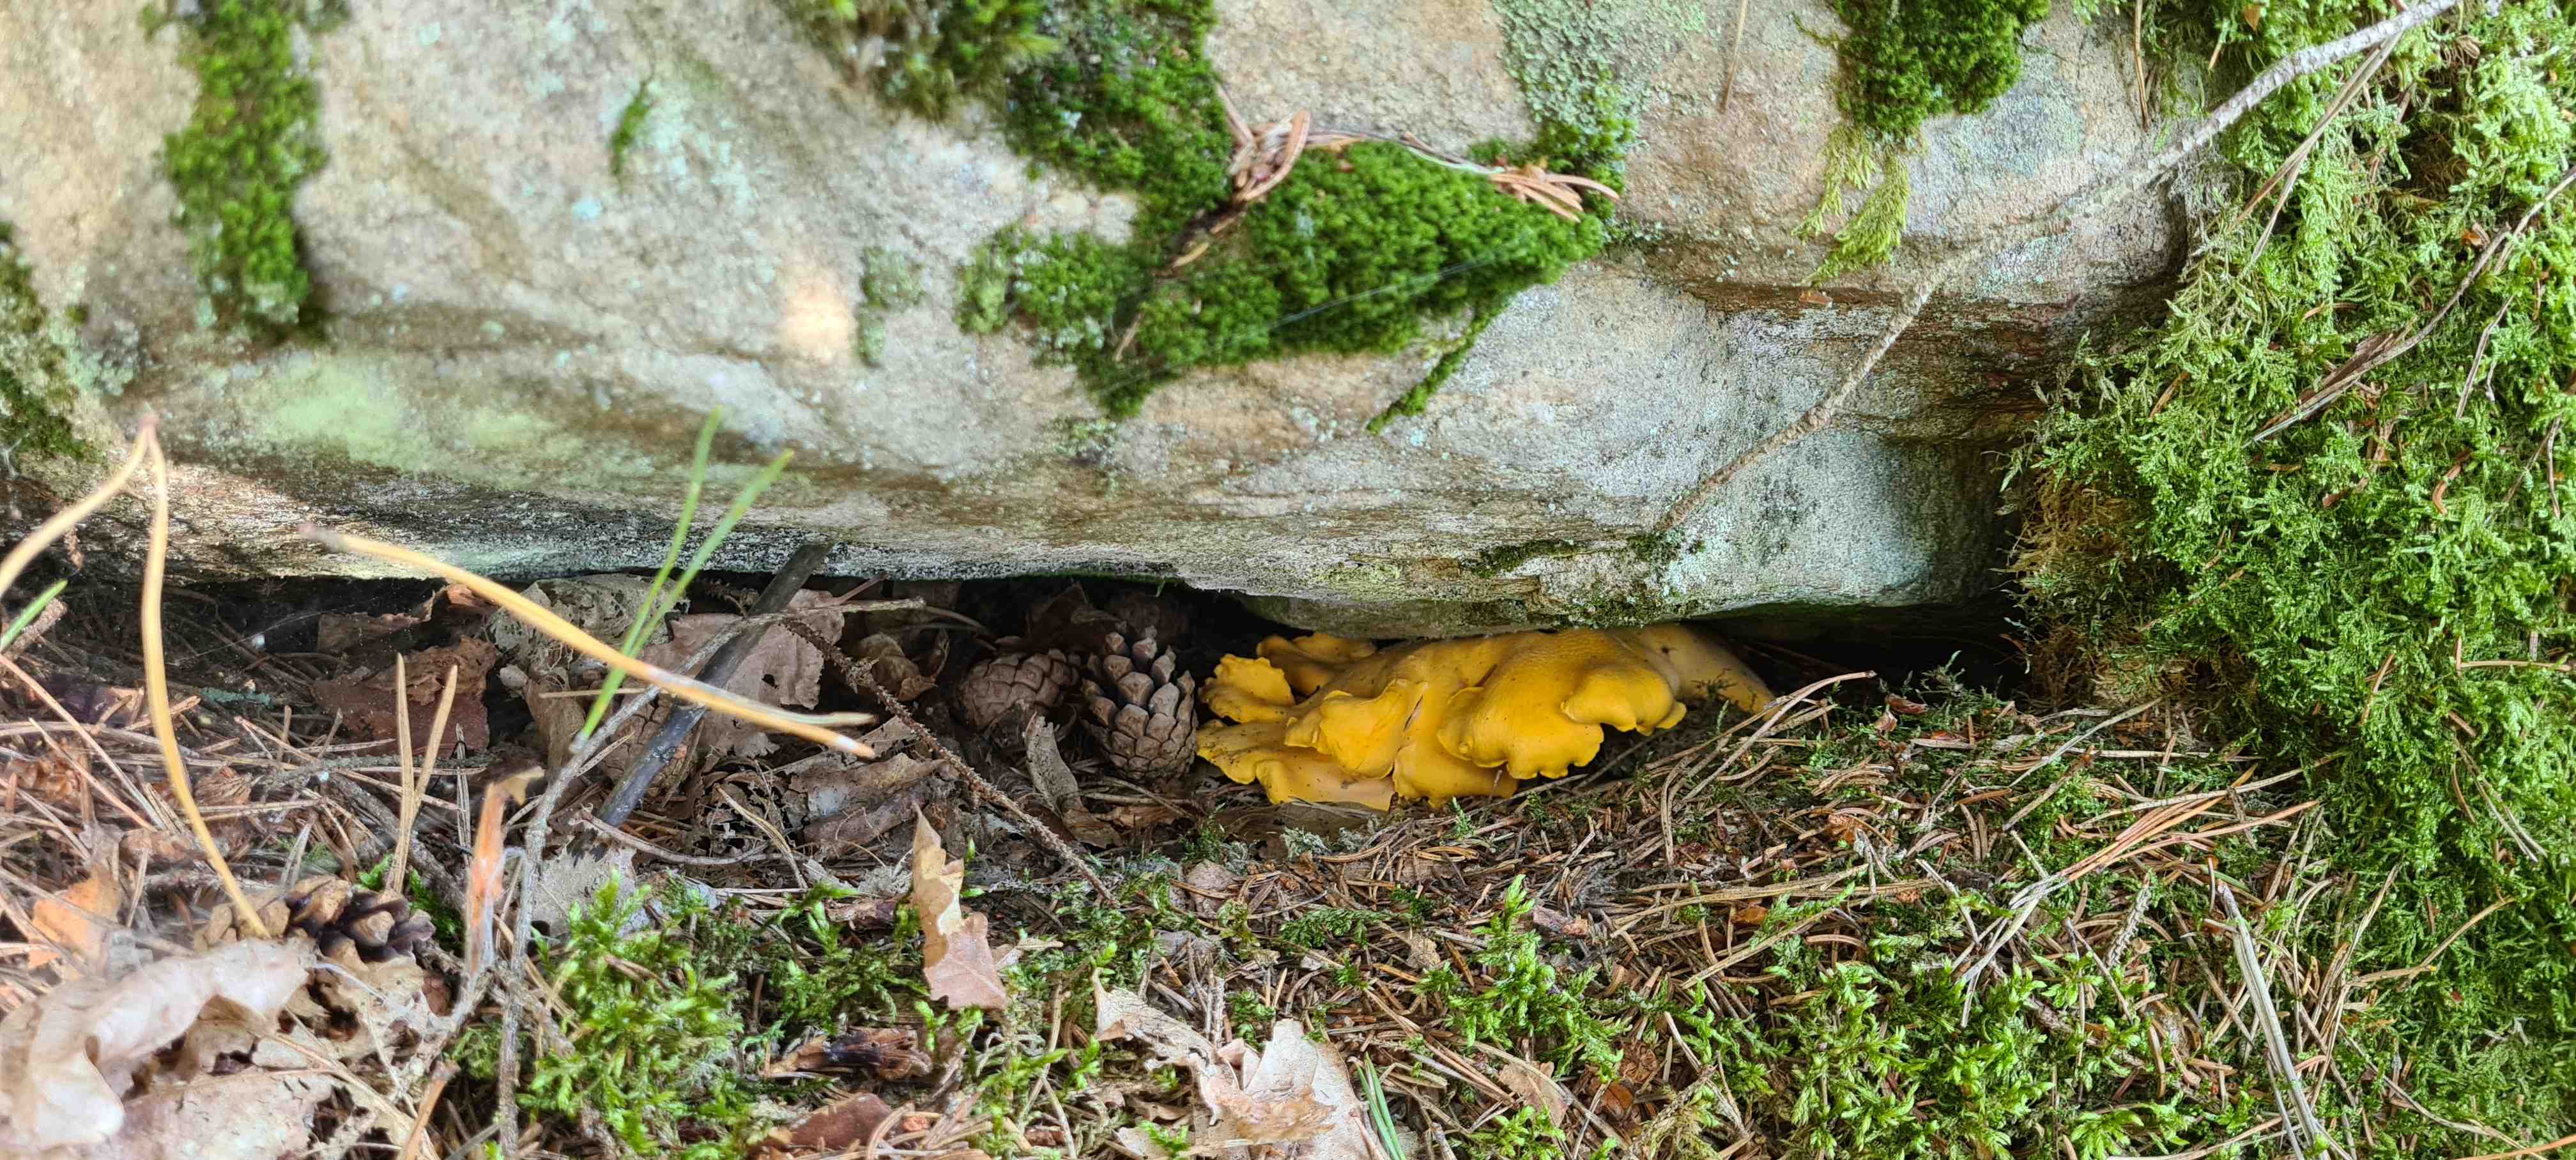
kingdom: Fungi
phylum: Basidiomycota
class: Agaricomycetes
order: Cantharellales
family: Hydnaceae
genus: Cantharellus
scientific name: Cantharellus cibarius
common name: almindelig kantarel
